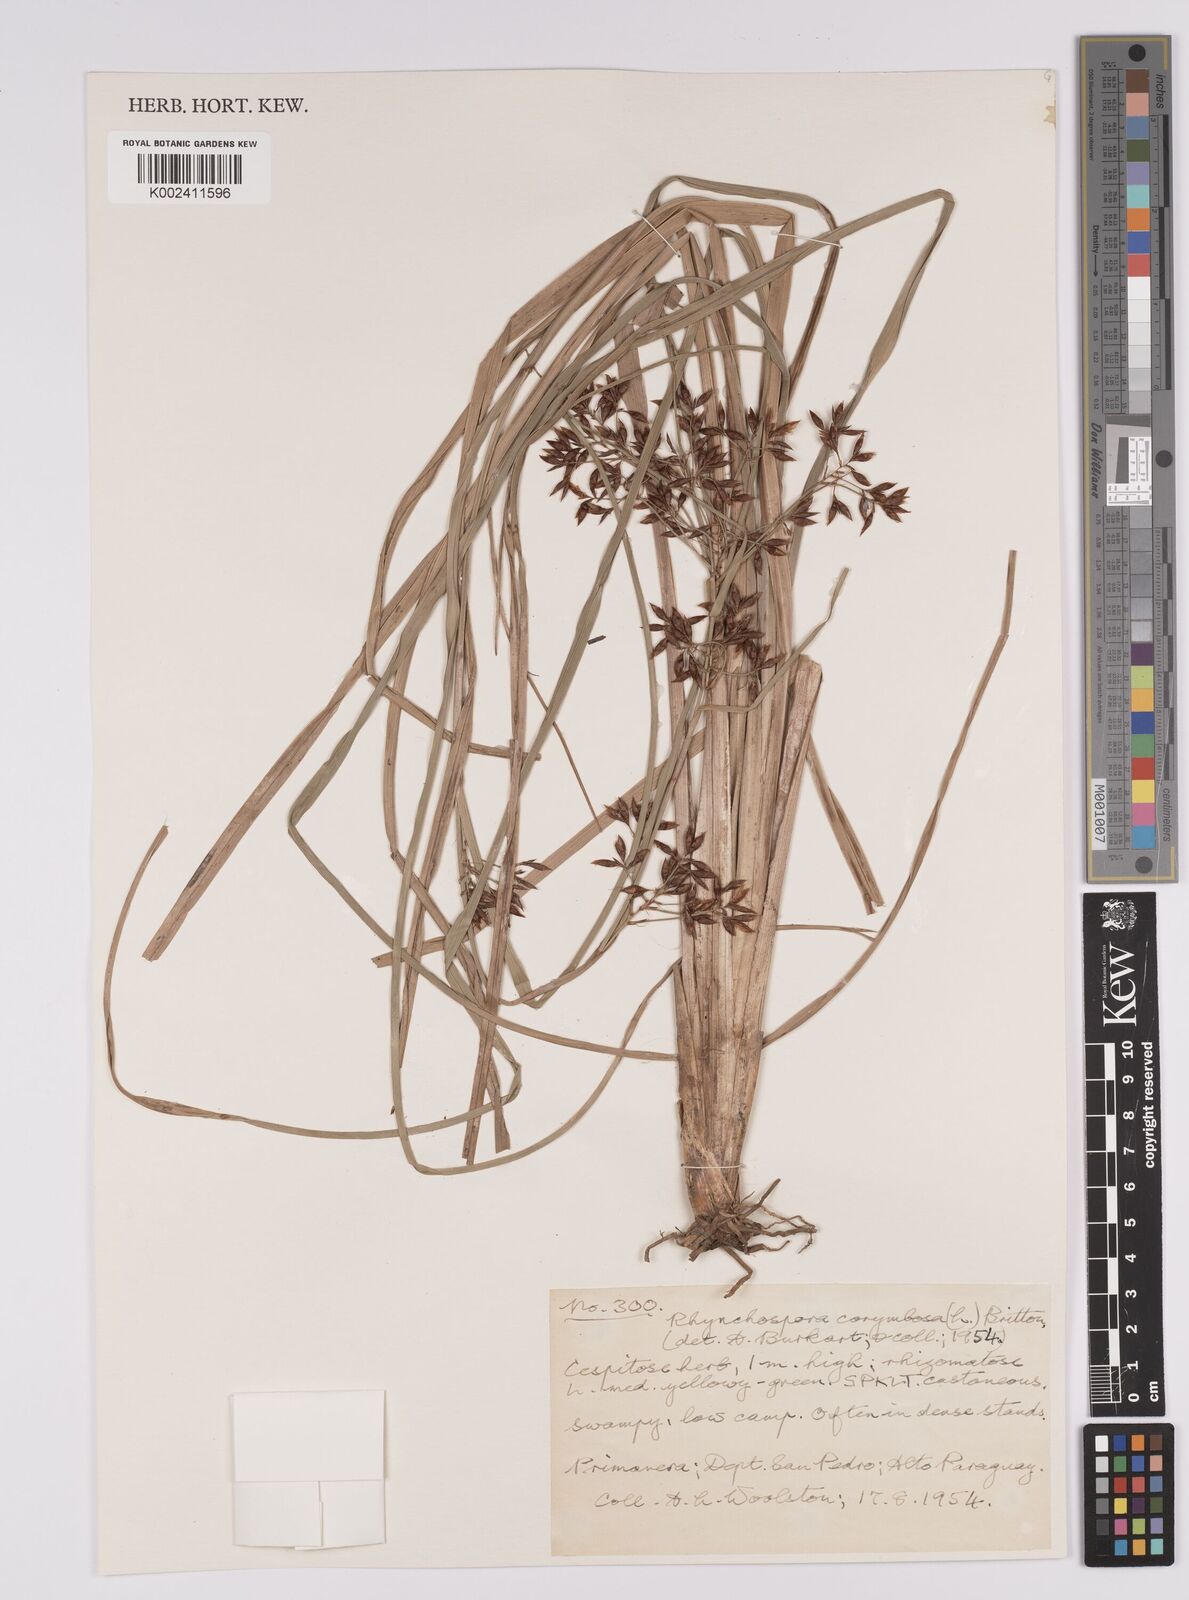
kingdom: Plantae
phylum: Tracheophyta
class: Liliopsida
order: Poales
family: Cyperaceae
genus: Rhynchospora
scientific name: Rhynchospora corymbosa
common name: Golden beak sedge
